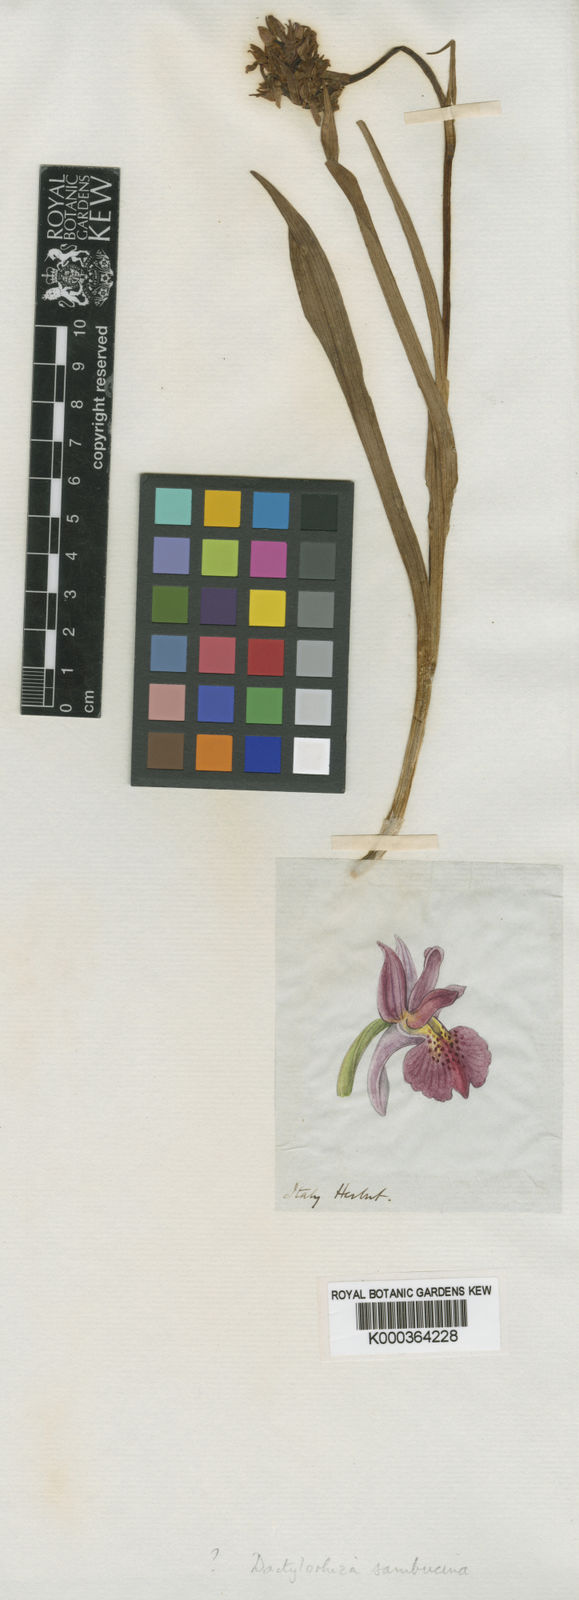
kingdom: Plantae
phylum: Tracheophyta
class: Liliopsida
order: Asparagales
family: Orchidaceae
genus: Dactylorhiza
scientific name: Dactylorhiza
